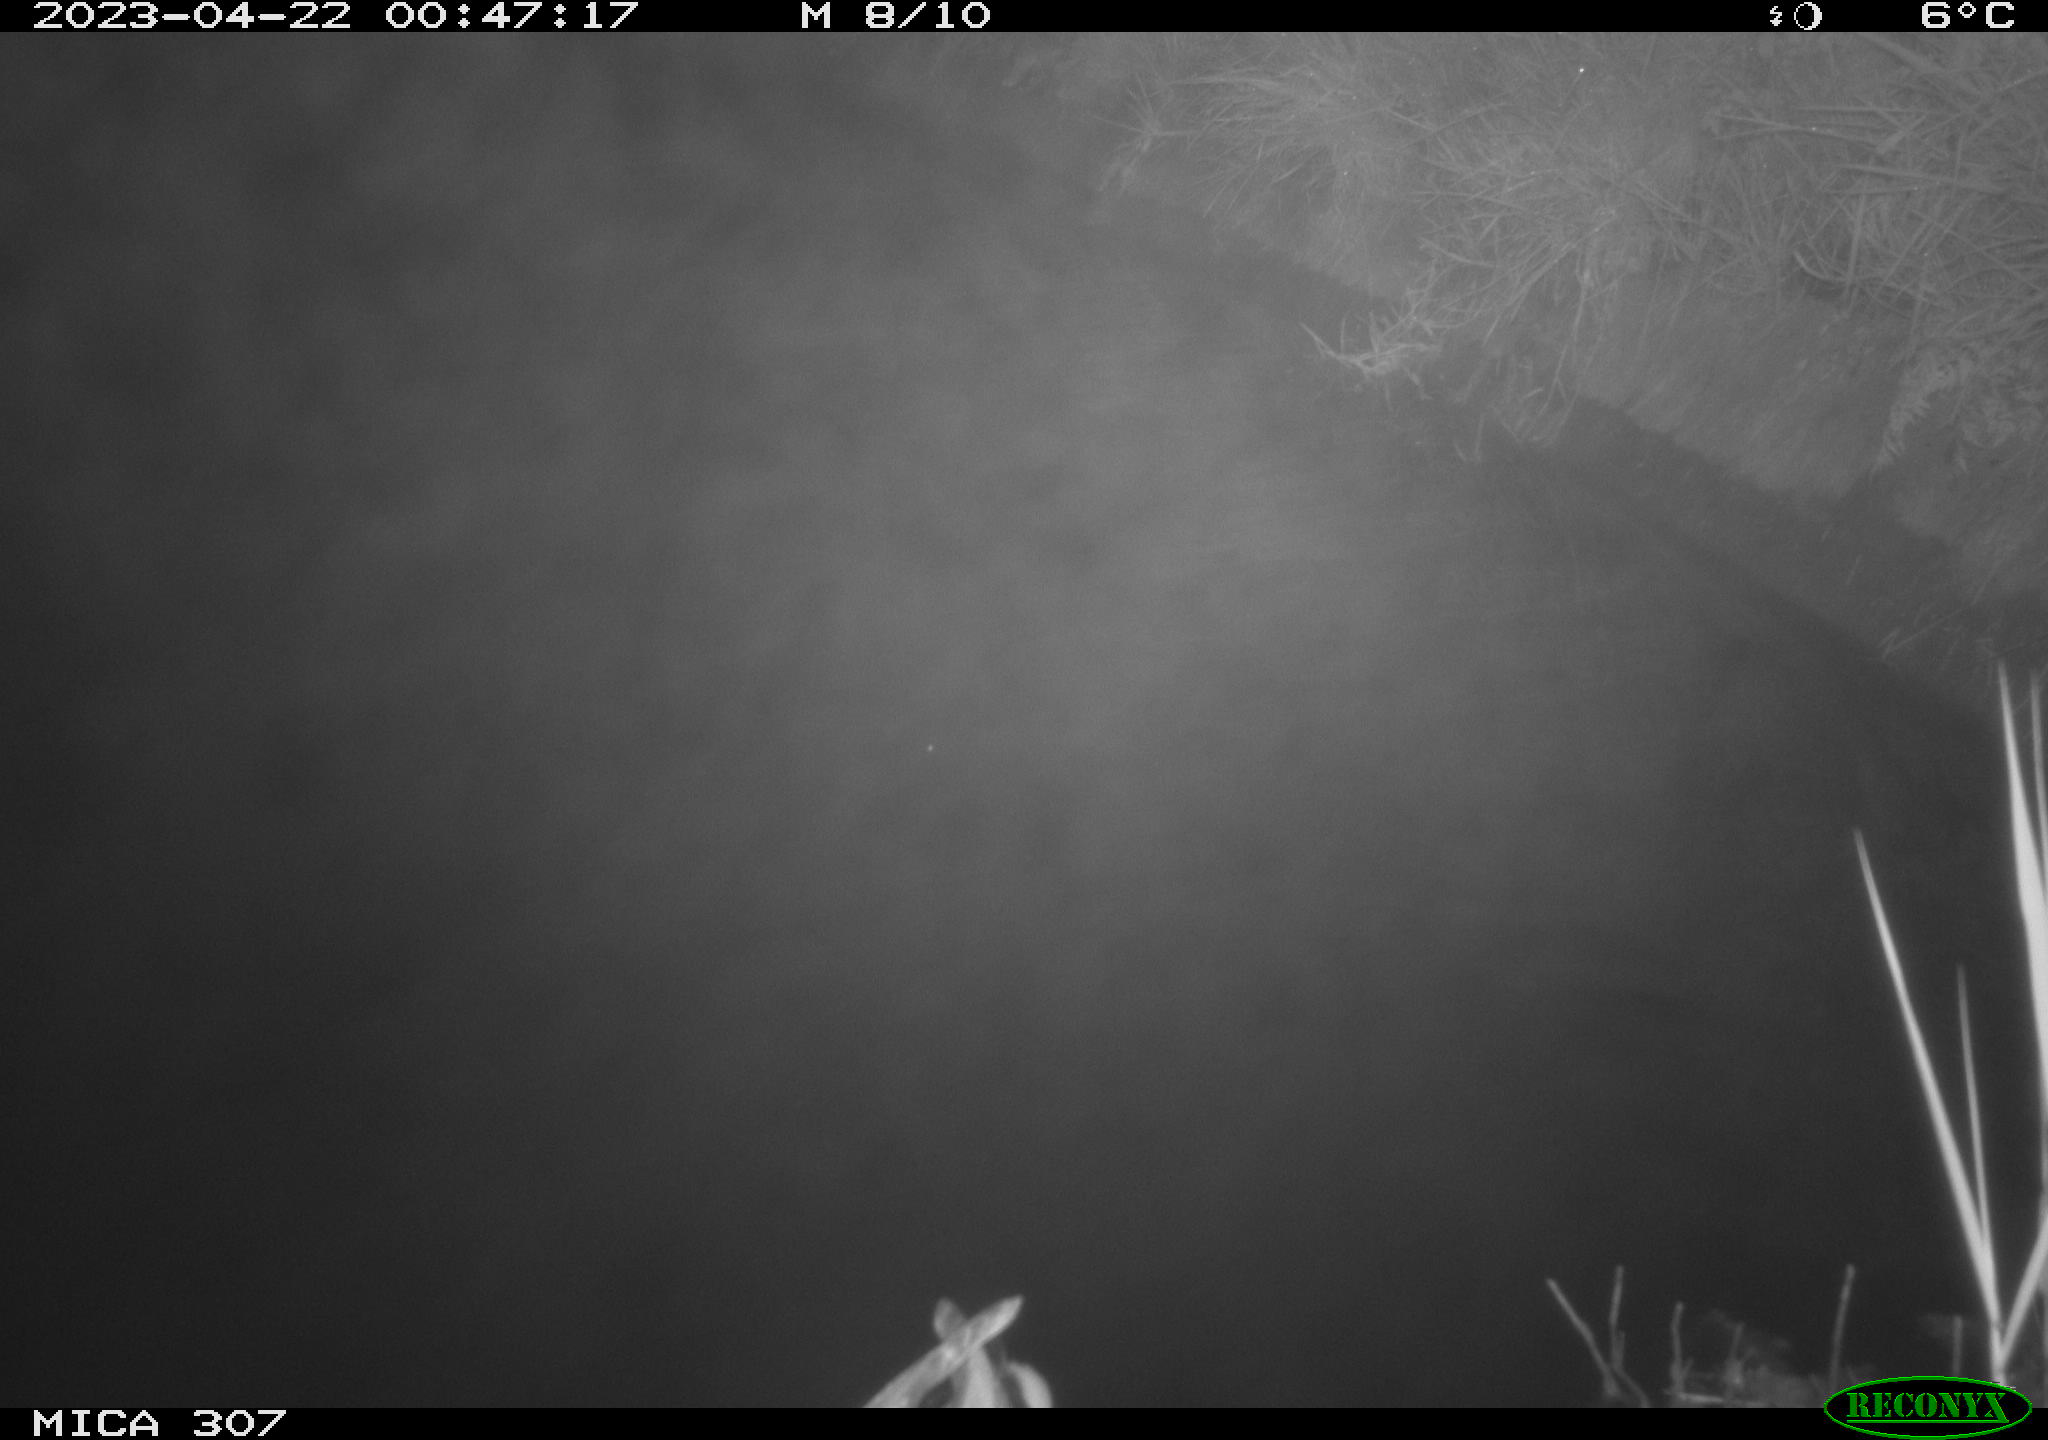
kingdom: Animalia
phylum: Chordata
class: Aves
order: Anseriformes
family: Anatidae
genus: Anas
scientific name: Anas
